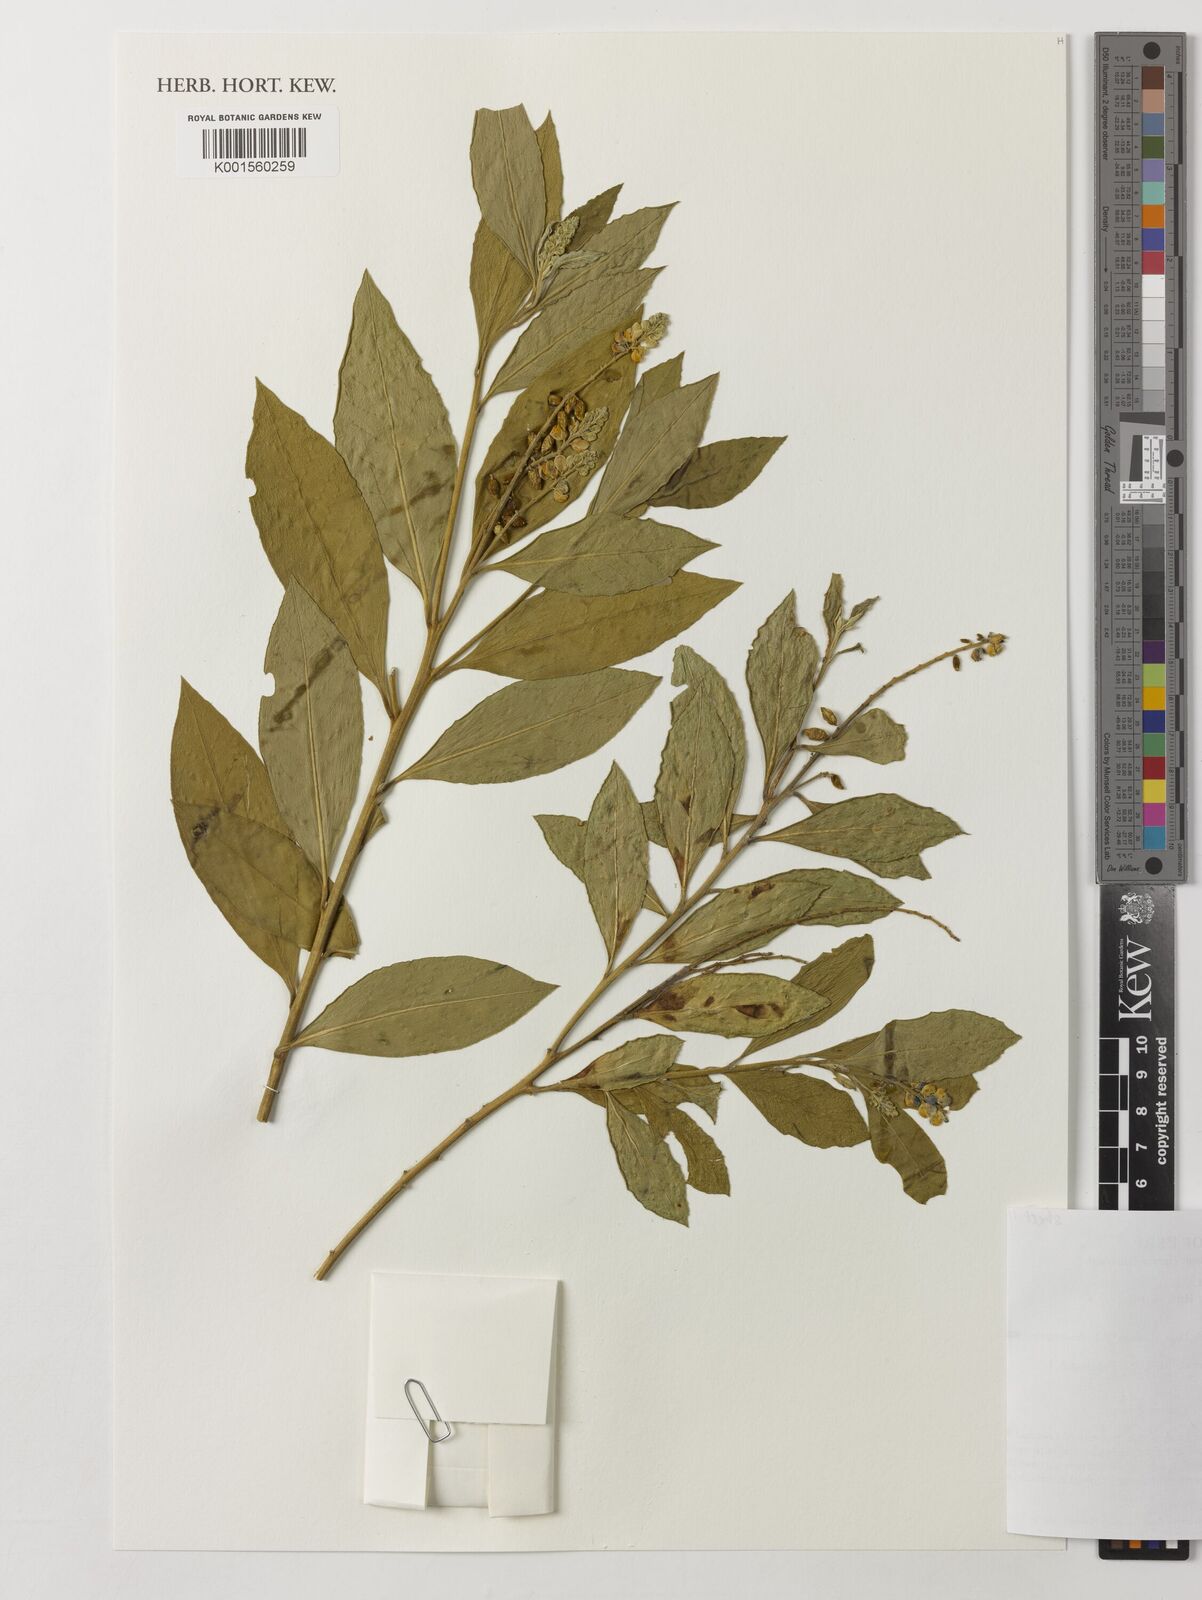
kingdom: Plantae
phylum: Tracheophyta
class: Magnoliopsida
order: Fabales
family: Polygalaceae
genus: Monnina
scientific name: Monnina
